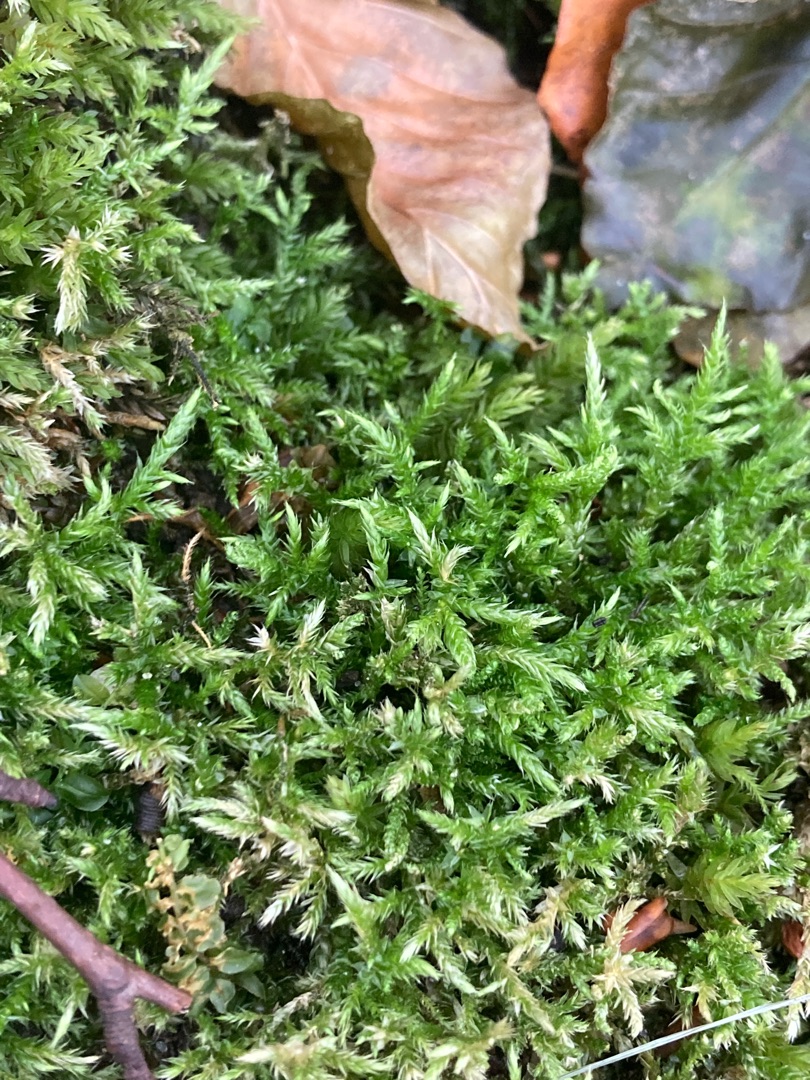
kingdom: Plantae
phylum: Bryophyta
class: Bryopsida
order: Hypnales
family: Brachytheciaceae
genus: Cirriphyllum
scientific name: Cirriphyllum piliferum
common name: Almindelig penselmos
